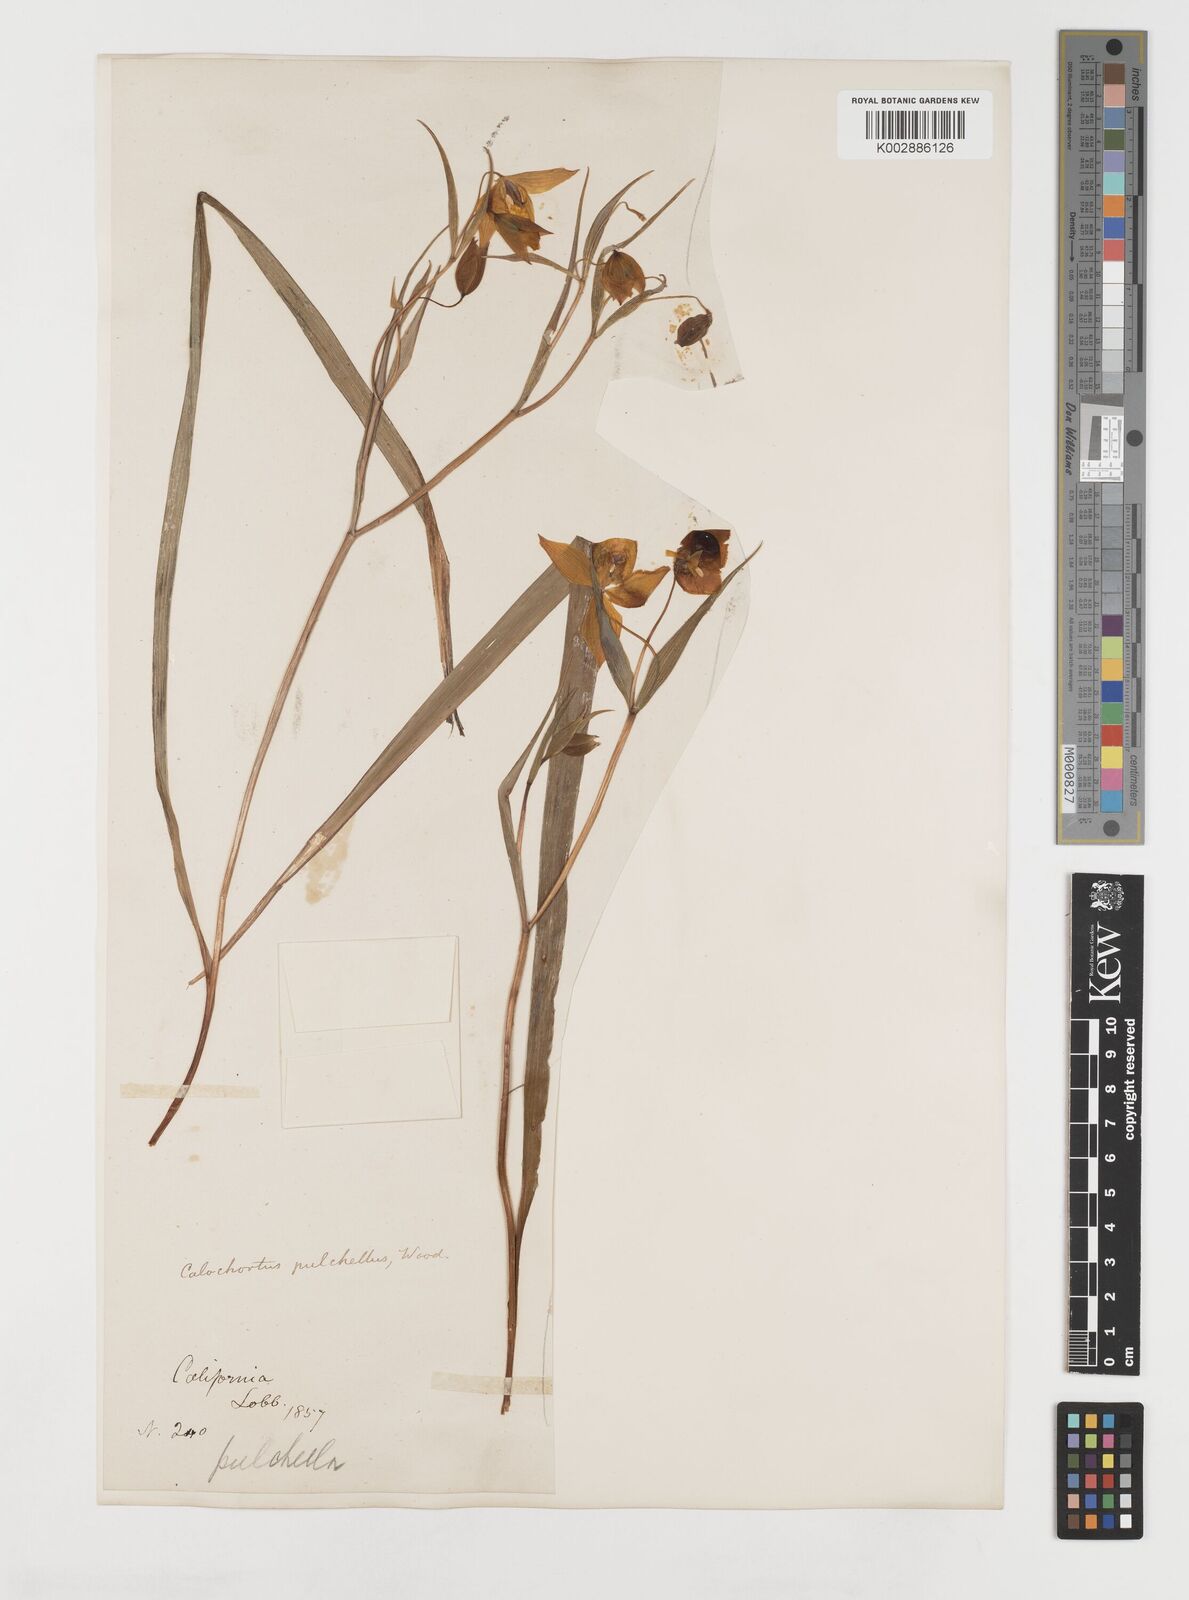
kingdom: Plantae
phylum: Tracheophyta
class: Liliopsida
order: Liliales
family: Liliaceae
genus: Calochortus
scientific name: Calochortus pulchellus
